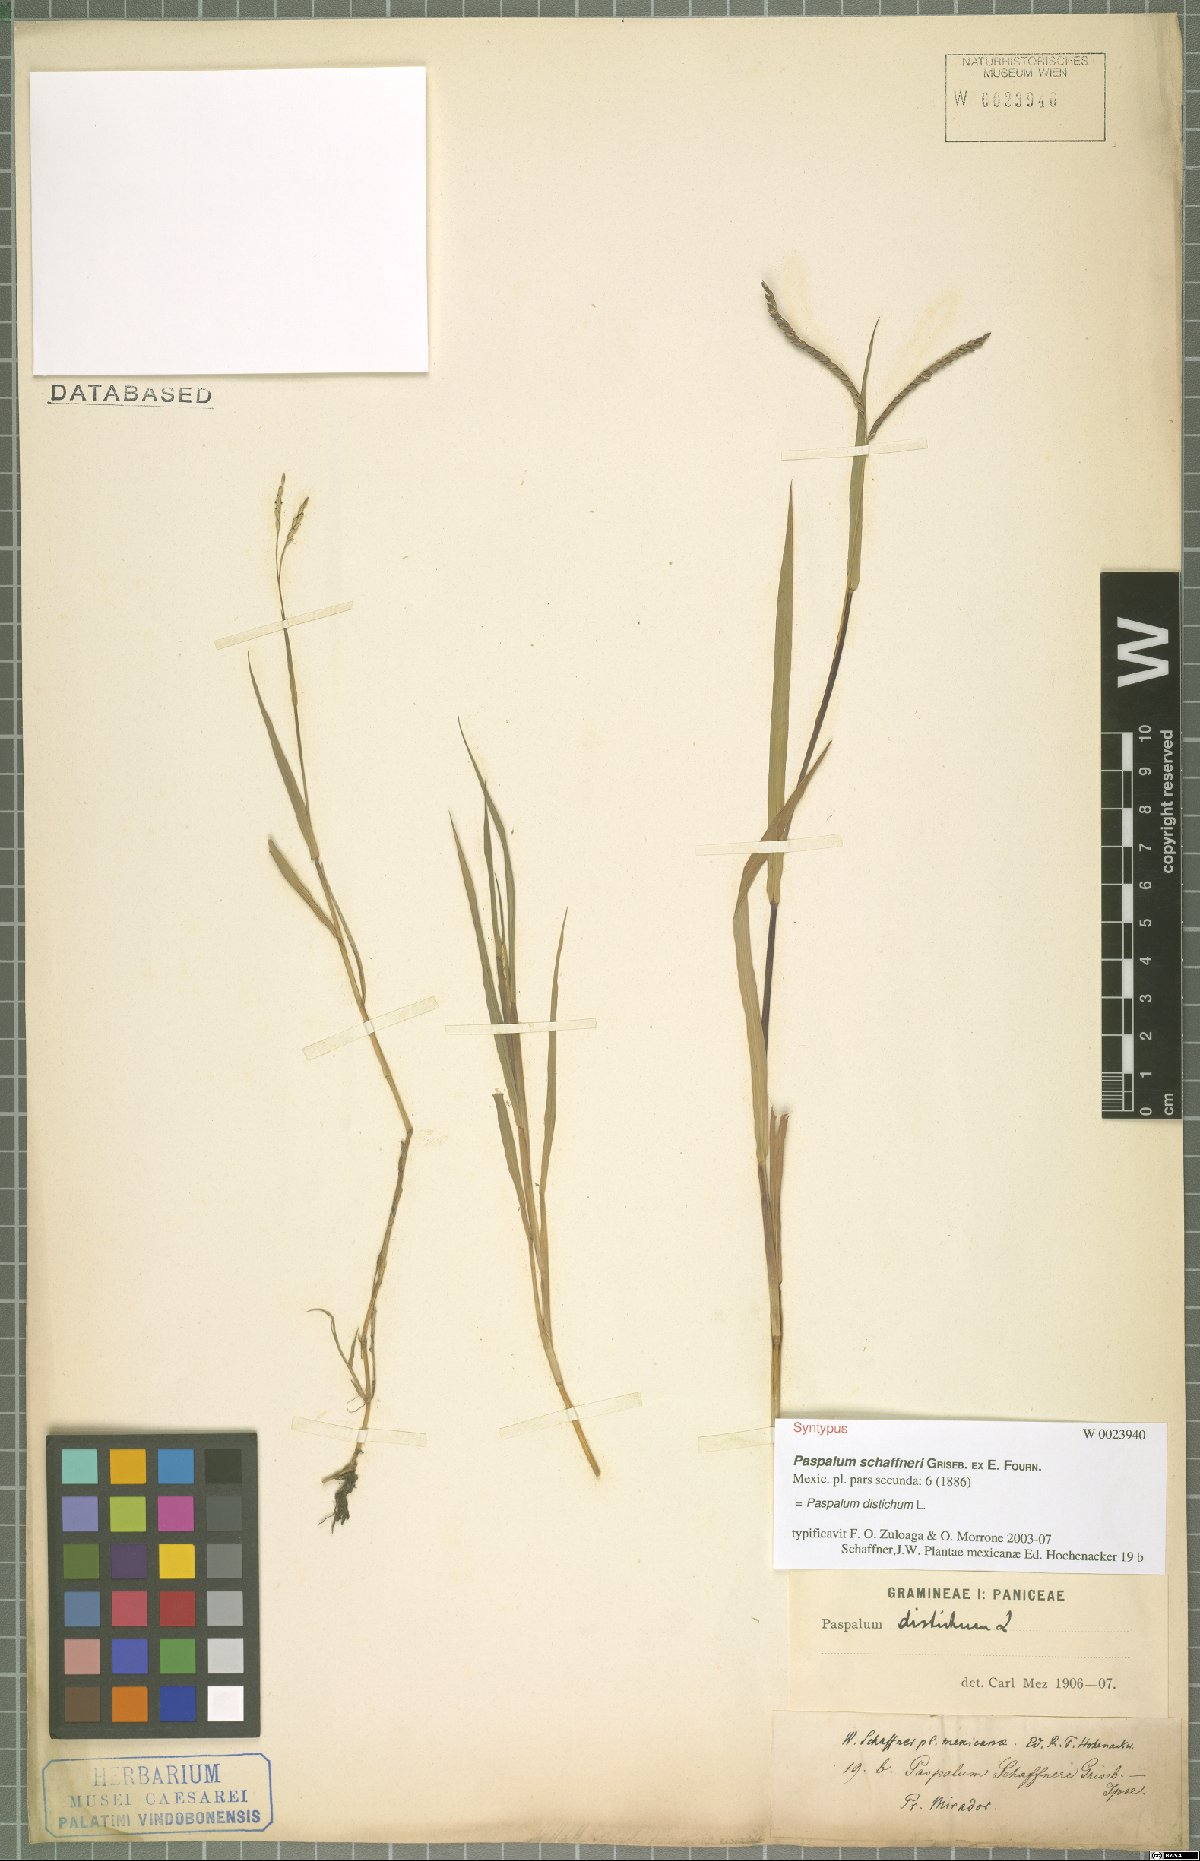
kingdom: Plantae
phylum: Tracheophyta
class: Liliopsida
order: Poales
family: Poaceae
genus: Paspalum
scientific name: Paspalum distichum
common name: Knotgrass
